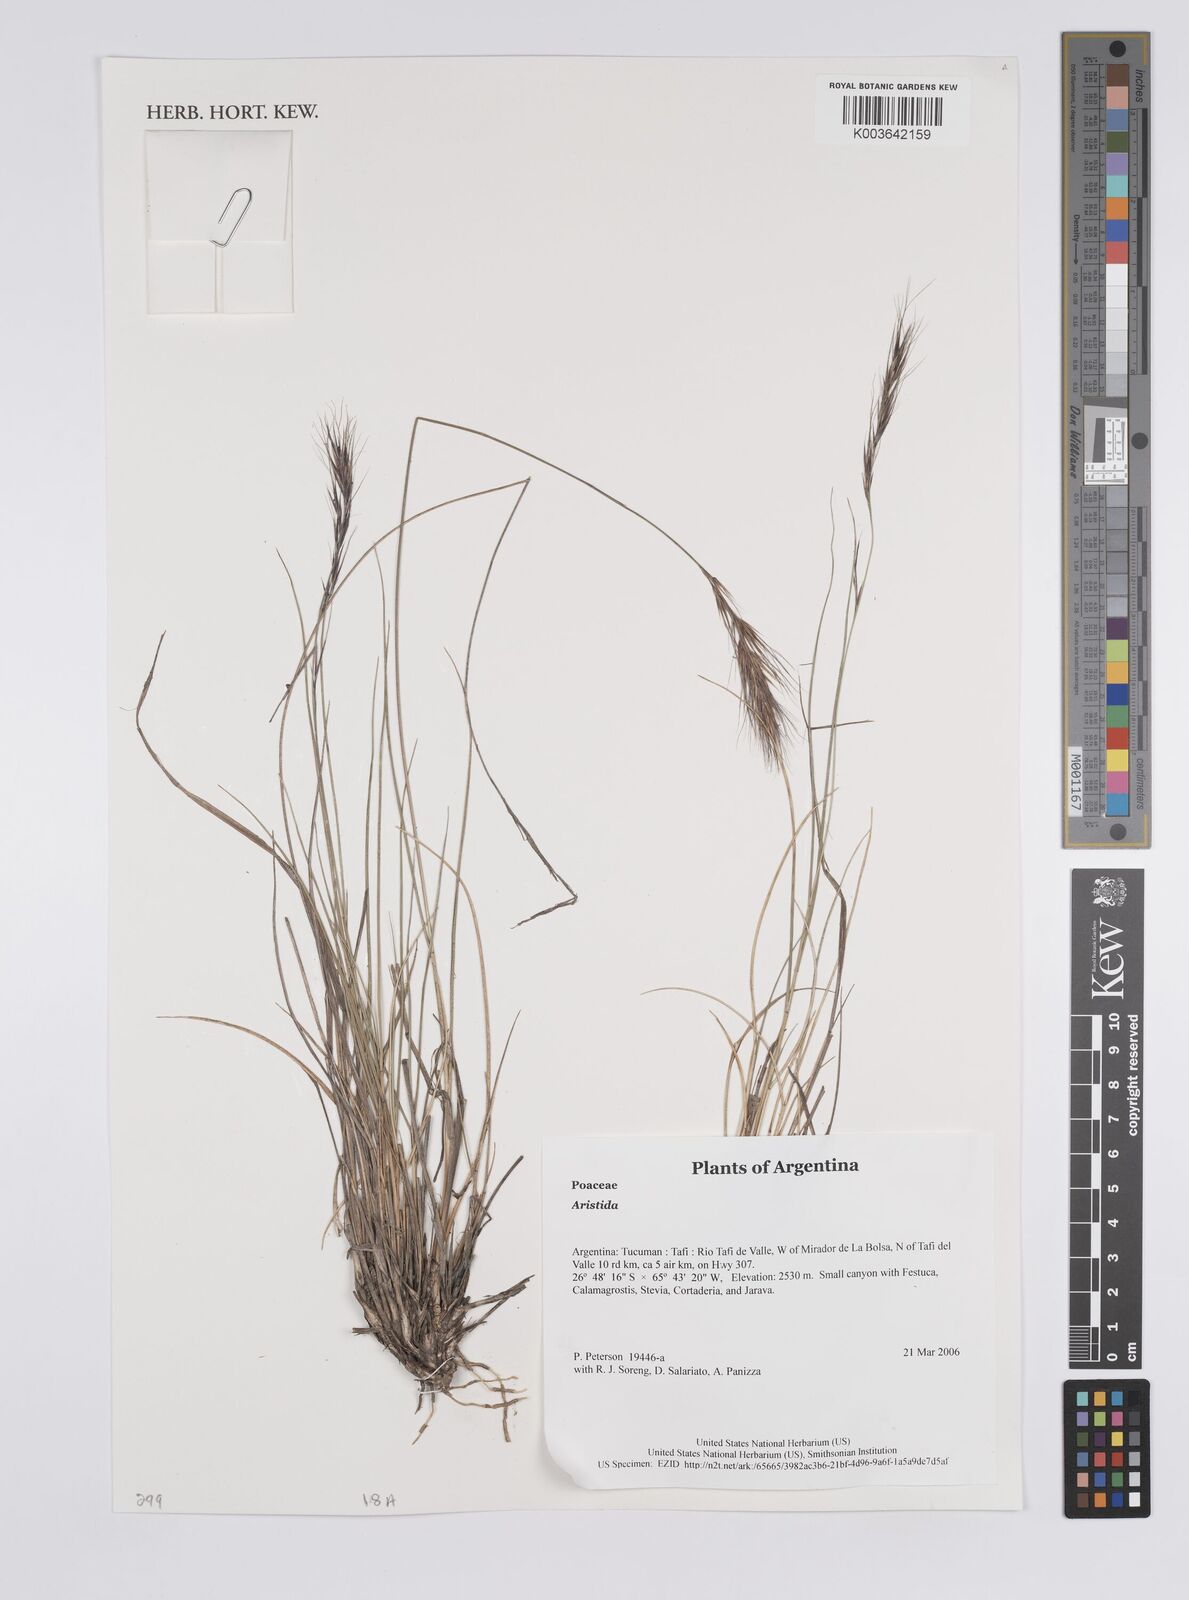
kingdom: Plantae
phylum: Tracheophyta
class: Liliopsida
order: Poales
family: Poaceae
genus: Aristida
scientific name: Aristida
